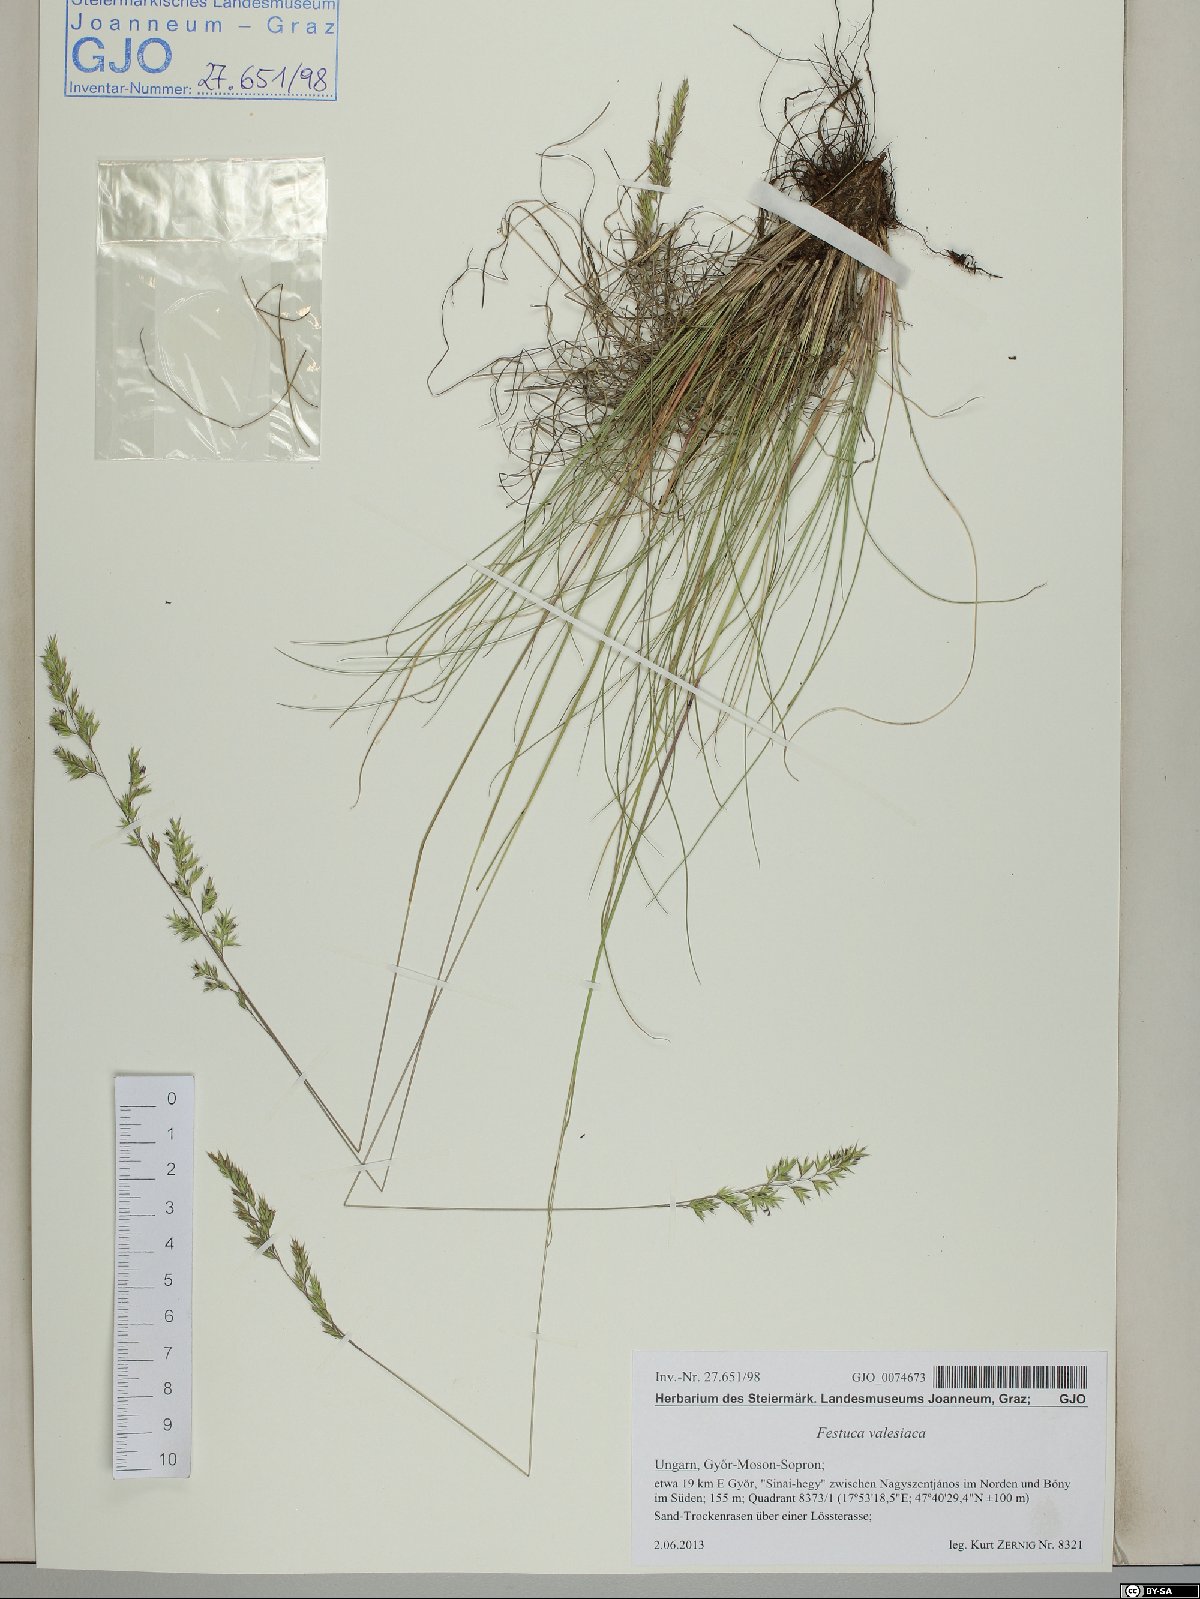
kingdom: Plantae
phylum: Tracheophyta
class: Liliopsida
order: Poales
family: Poaceae
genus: Festuca
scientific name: Festuca valesiaca
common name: Volga fescue
